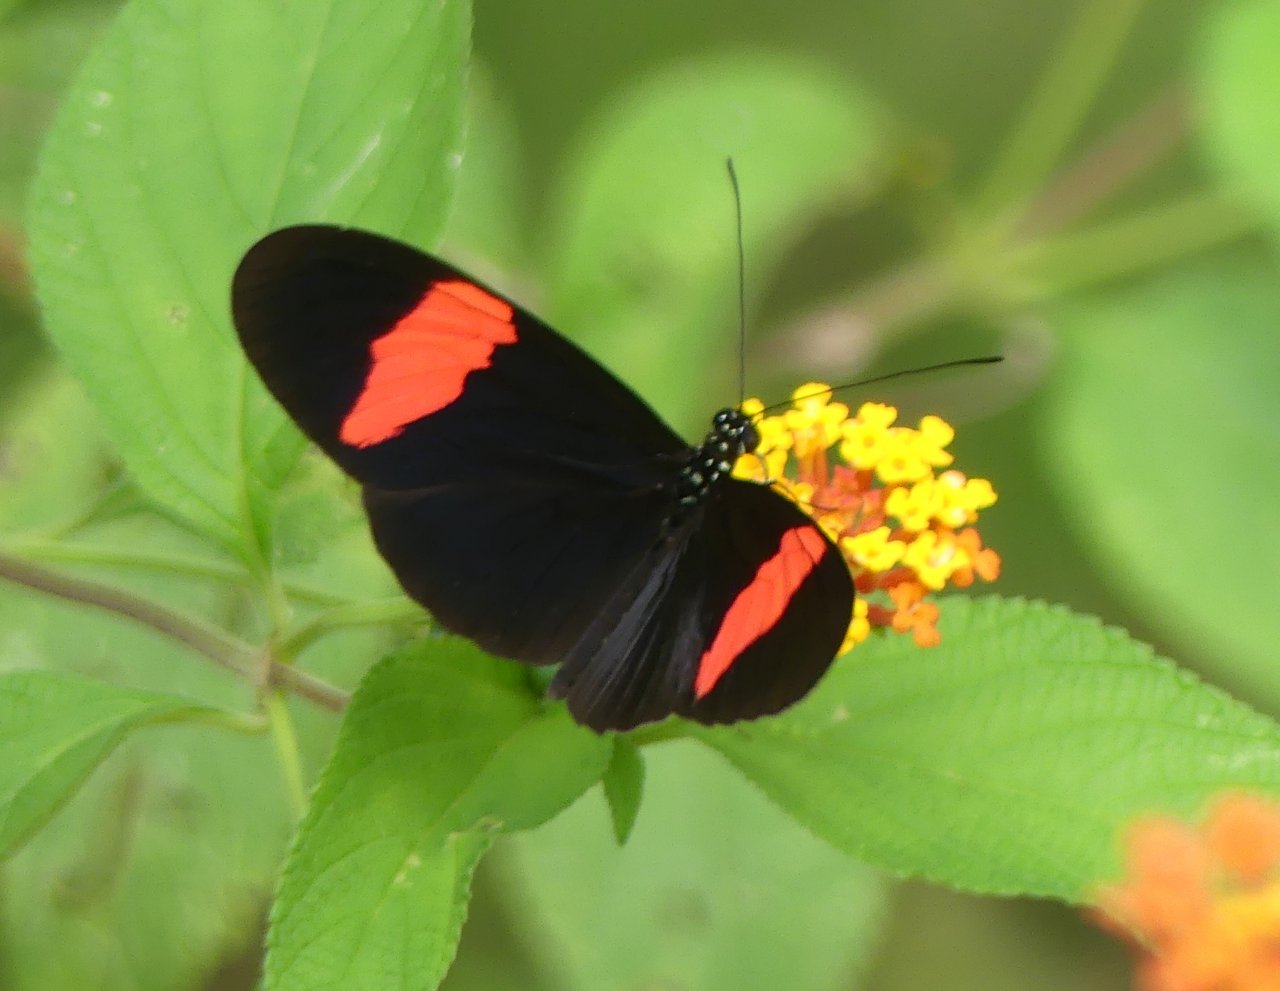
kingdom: Animalia
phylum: Arthropoda
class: Insecta
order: Lepidoptera
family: Nymphalidae
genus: Heliconius
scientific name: Heliconius erato
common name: Erato Heliconian
